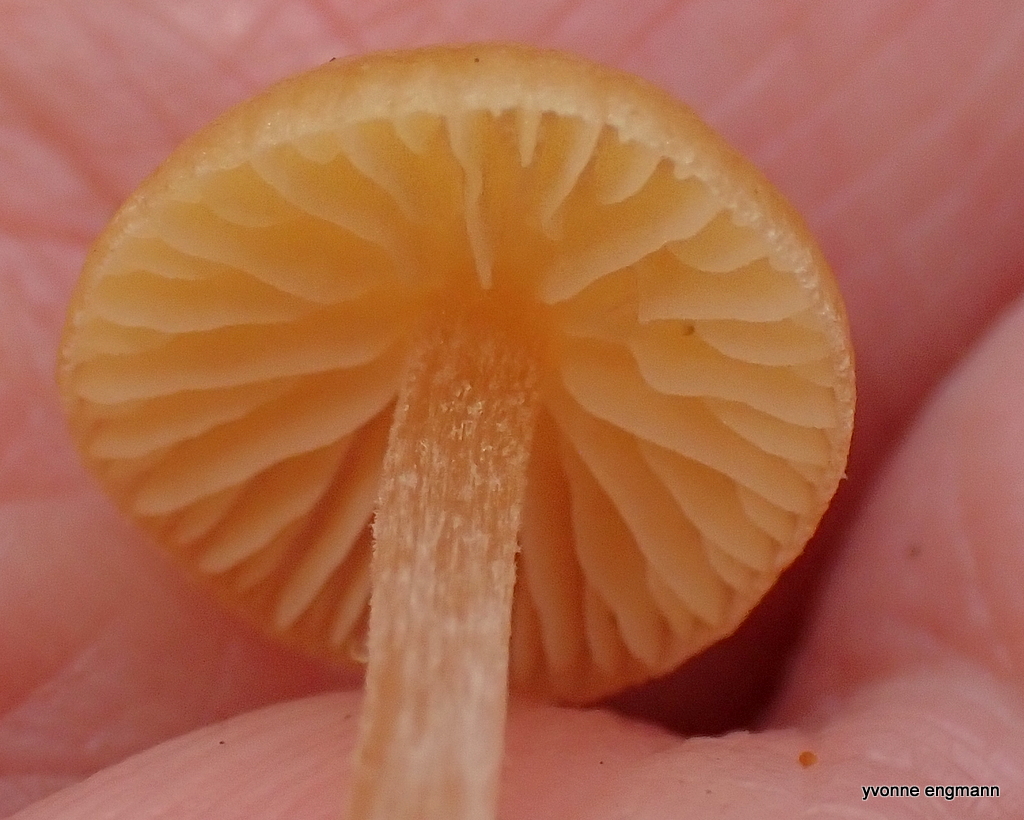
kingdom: Fungi
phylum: Basidiomycota
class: Agaricomycetes
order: Agaricales
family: Hymenogastraceae
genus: Galerina
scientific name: Galerina
